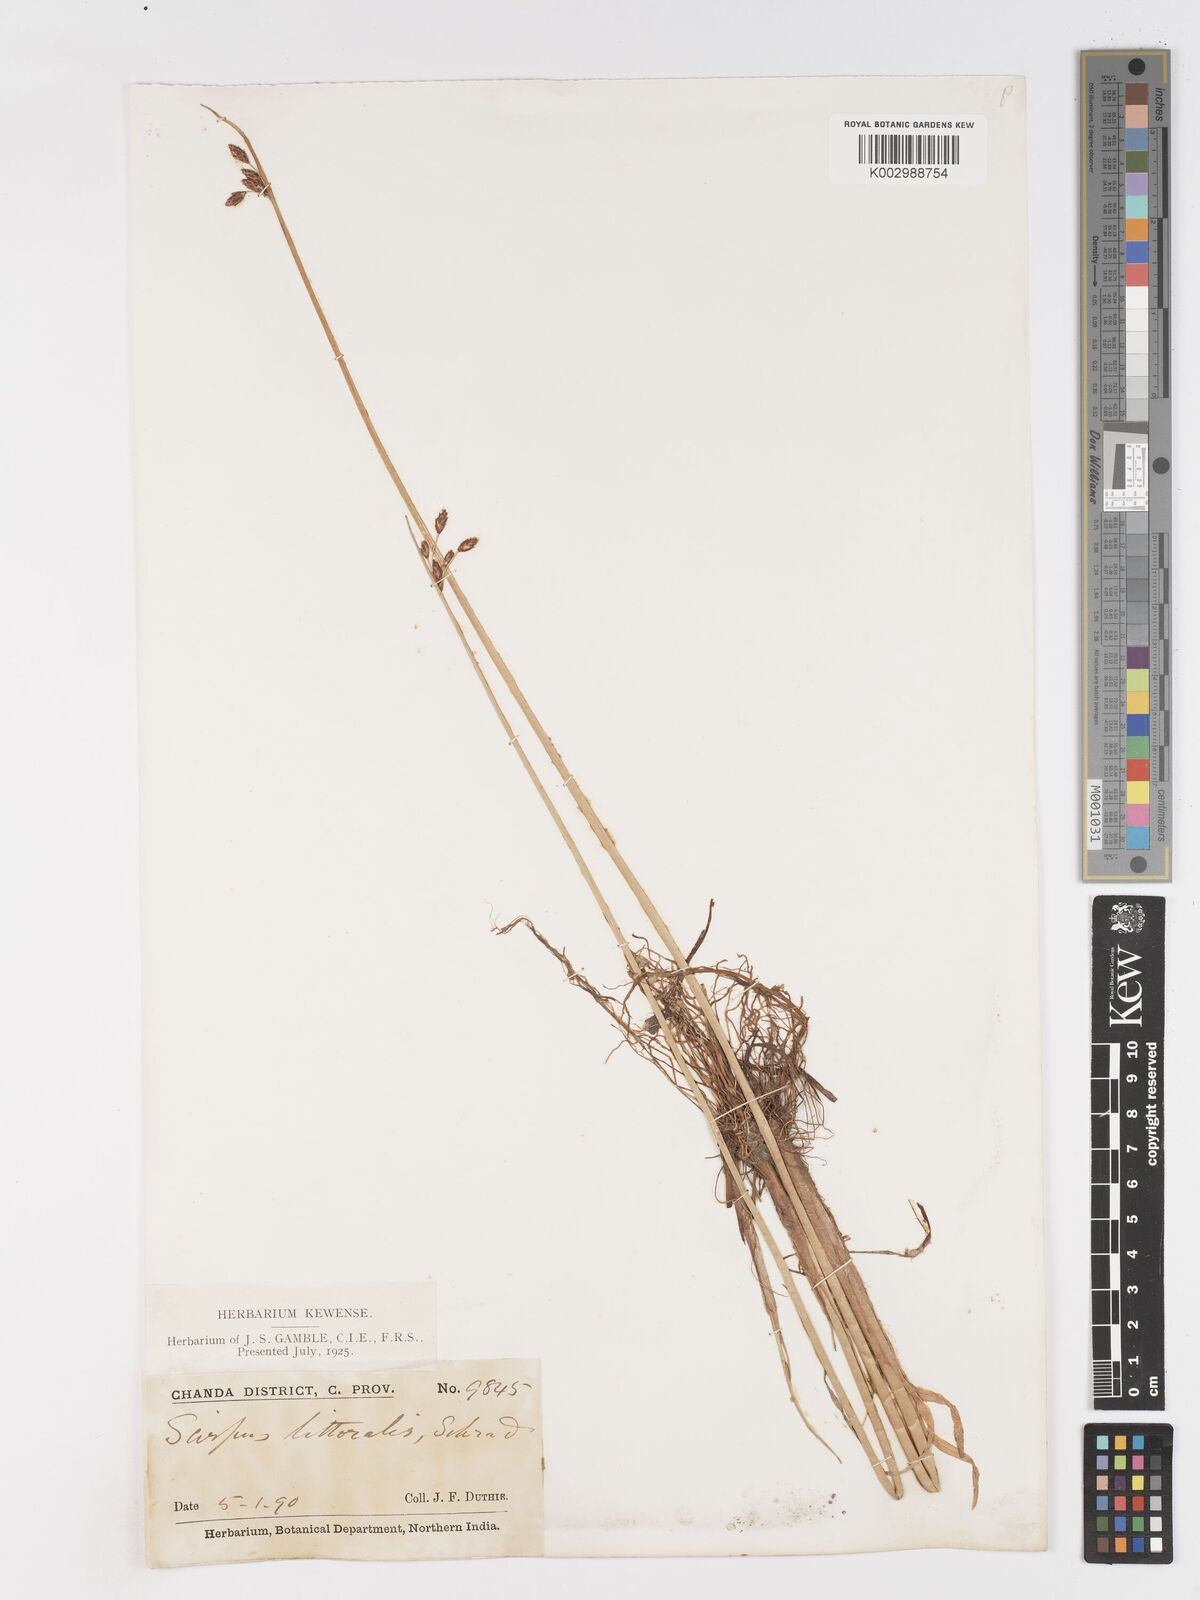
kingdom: Plantae
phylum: Tracheophyta
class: Liliopsida
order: Poales
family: Cyperaceae
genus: Schoenoplectus
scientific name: Schoenoplectus litoralis
